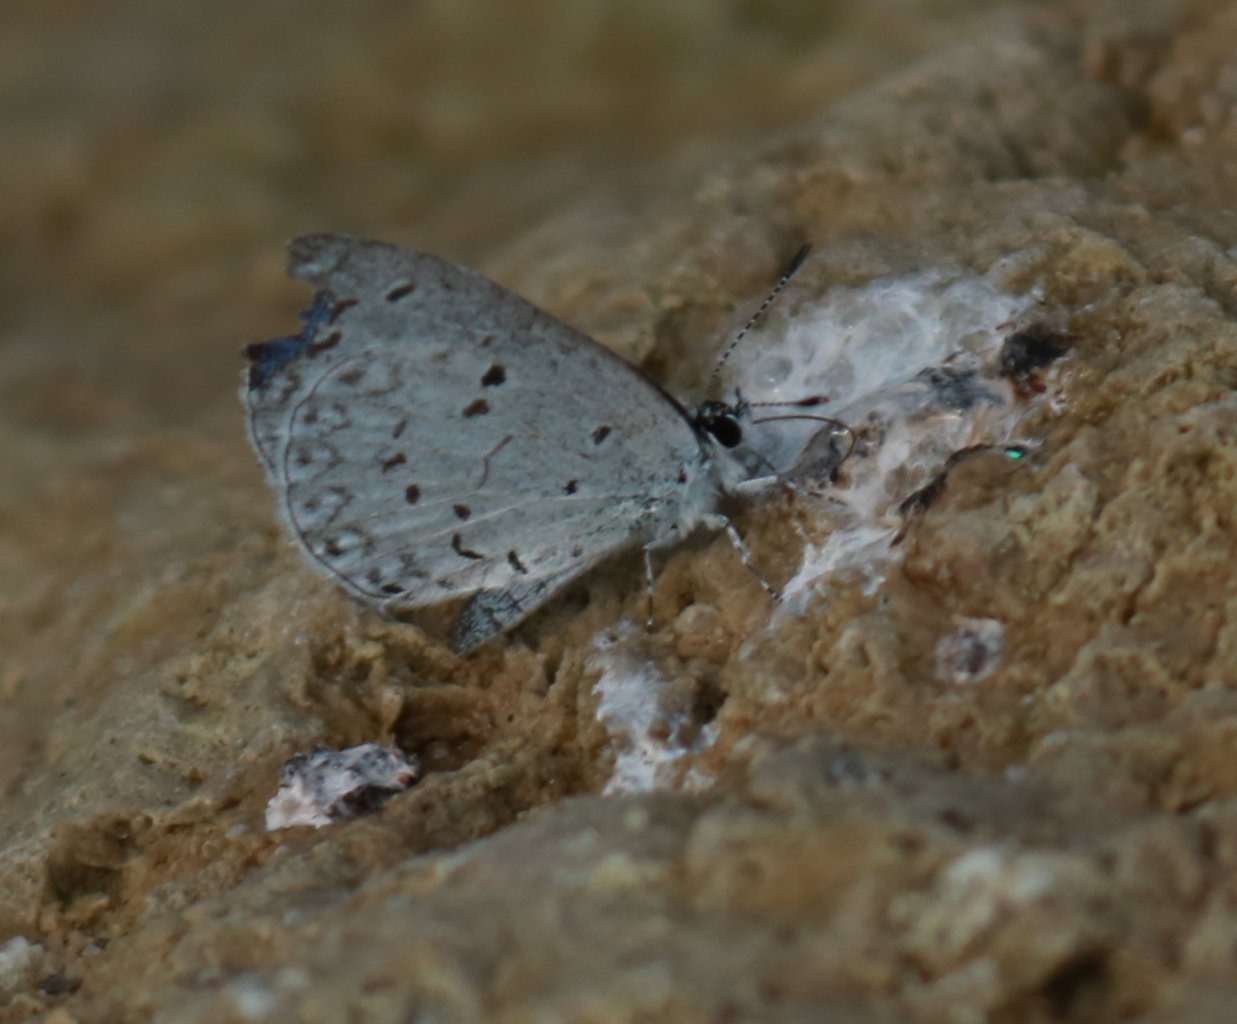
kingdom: Animalia
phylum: Arthropoda
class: Insecta
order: Lepidoptera
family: Lycaenidae
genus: Celastrina
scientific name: Celastrina
